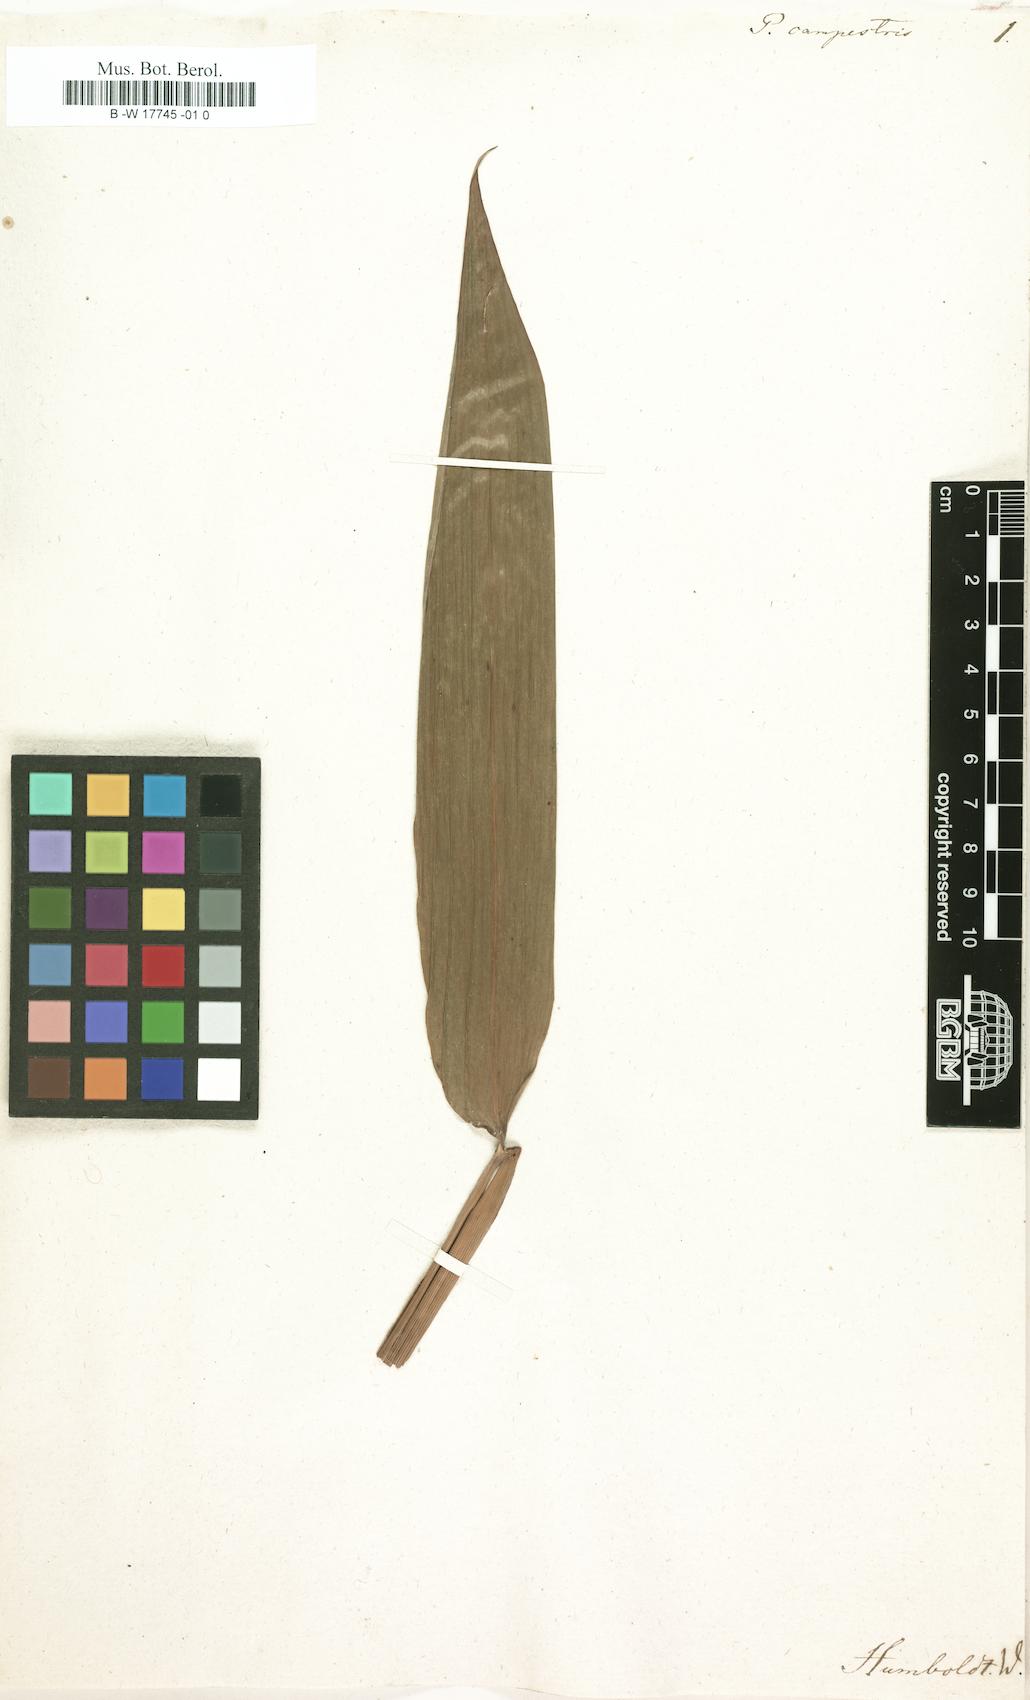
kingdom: Plantae
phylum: Tracheophyta
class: Liliopsida
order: Poales
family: Poaceae
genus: Pariana
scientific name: Pariana campestris
